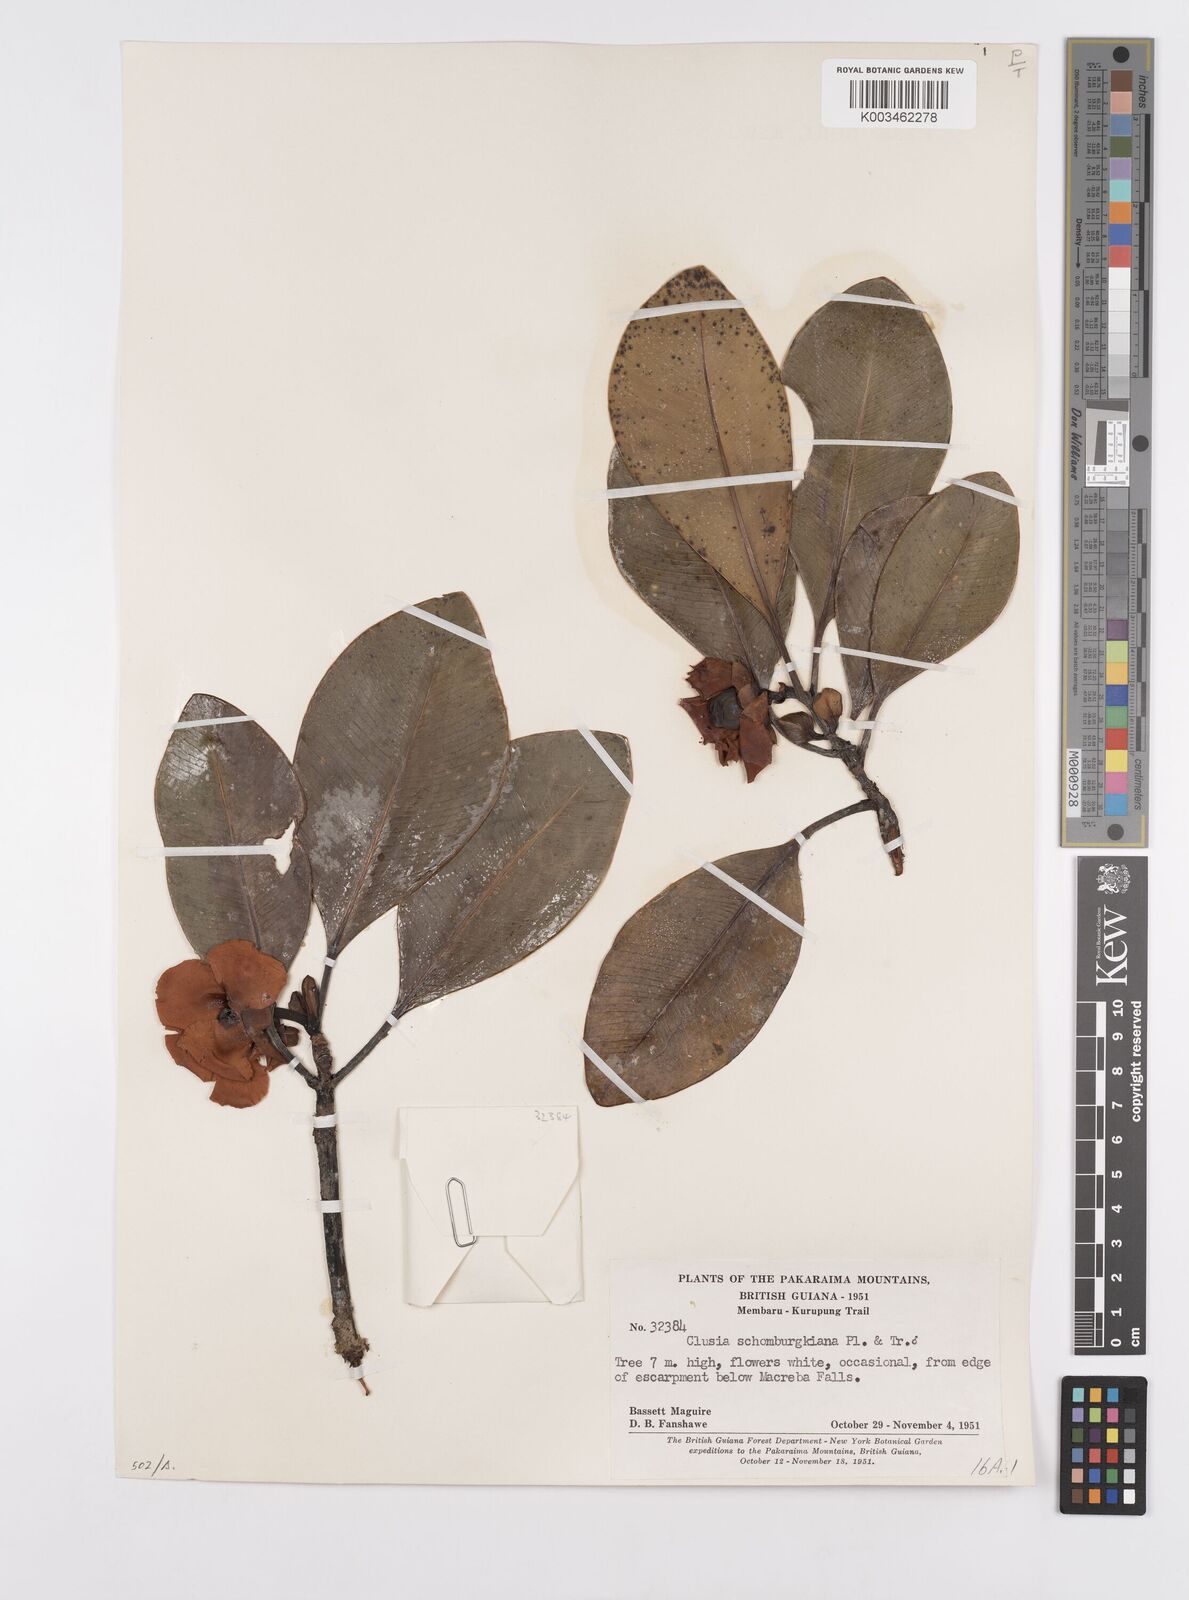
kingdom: Plantae
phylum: Tracheophyta
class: Magnoliopsida
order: Malpighiales
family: Clusiaceae
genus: Clusia
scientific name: Clusia schomburgkiana
